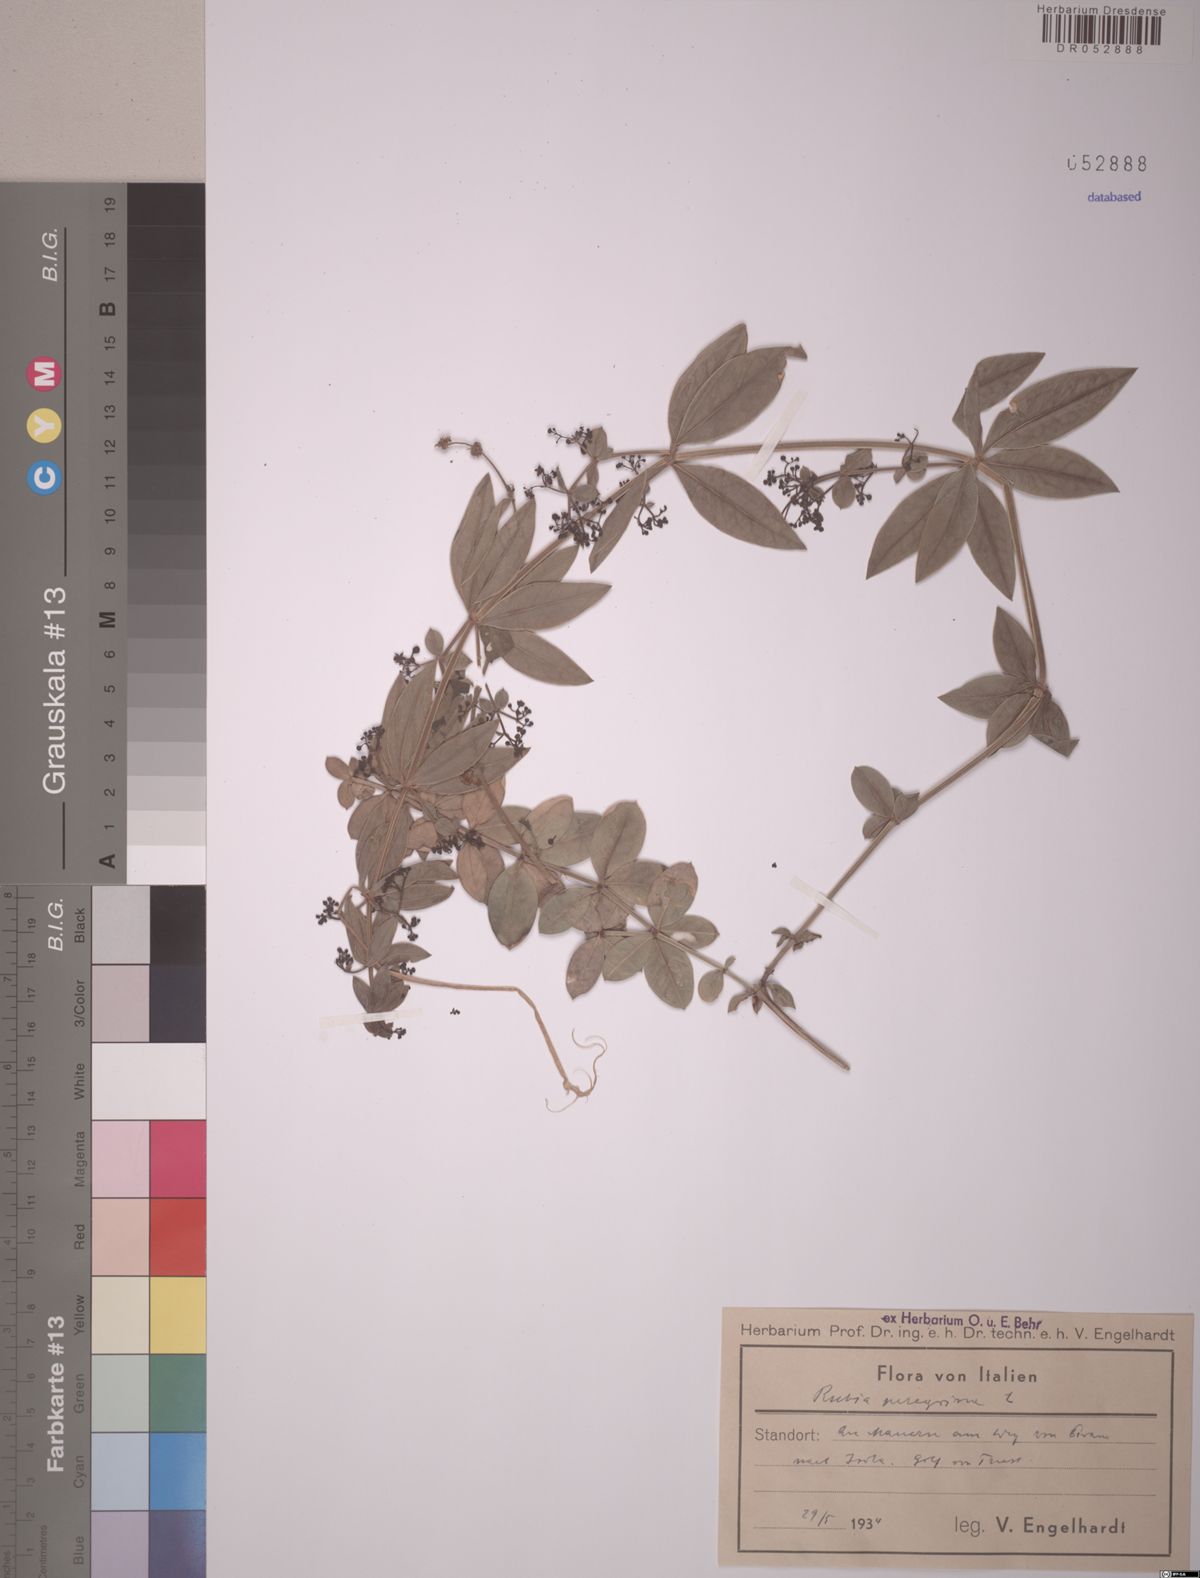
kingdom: Plantae
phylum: Tracheophyta
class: Magnoliopsida
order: Gentianales
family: Rubiaceae
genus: Rubia
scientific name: Rubia peregrina
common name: Wild madder
